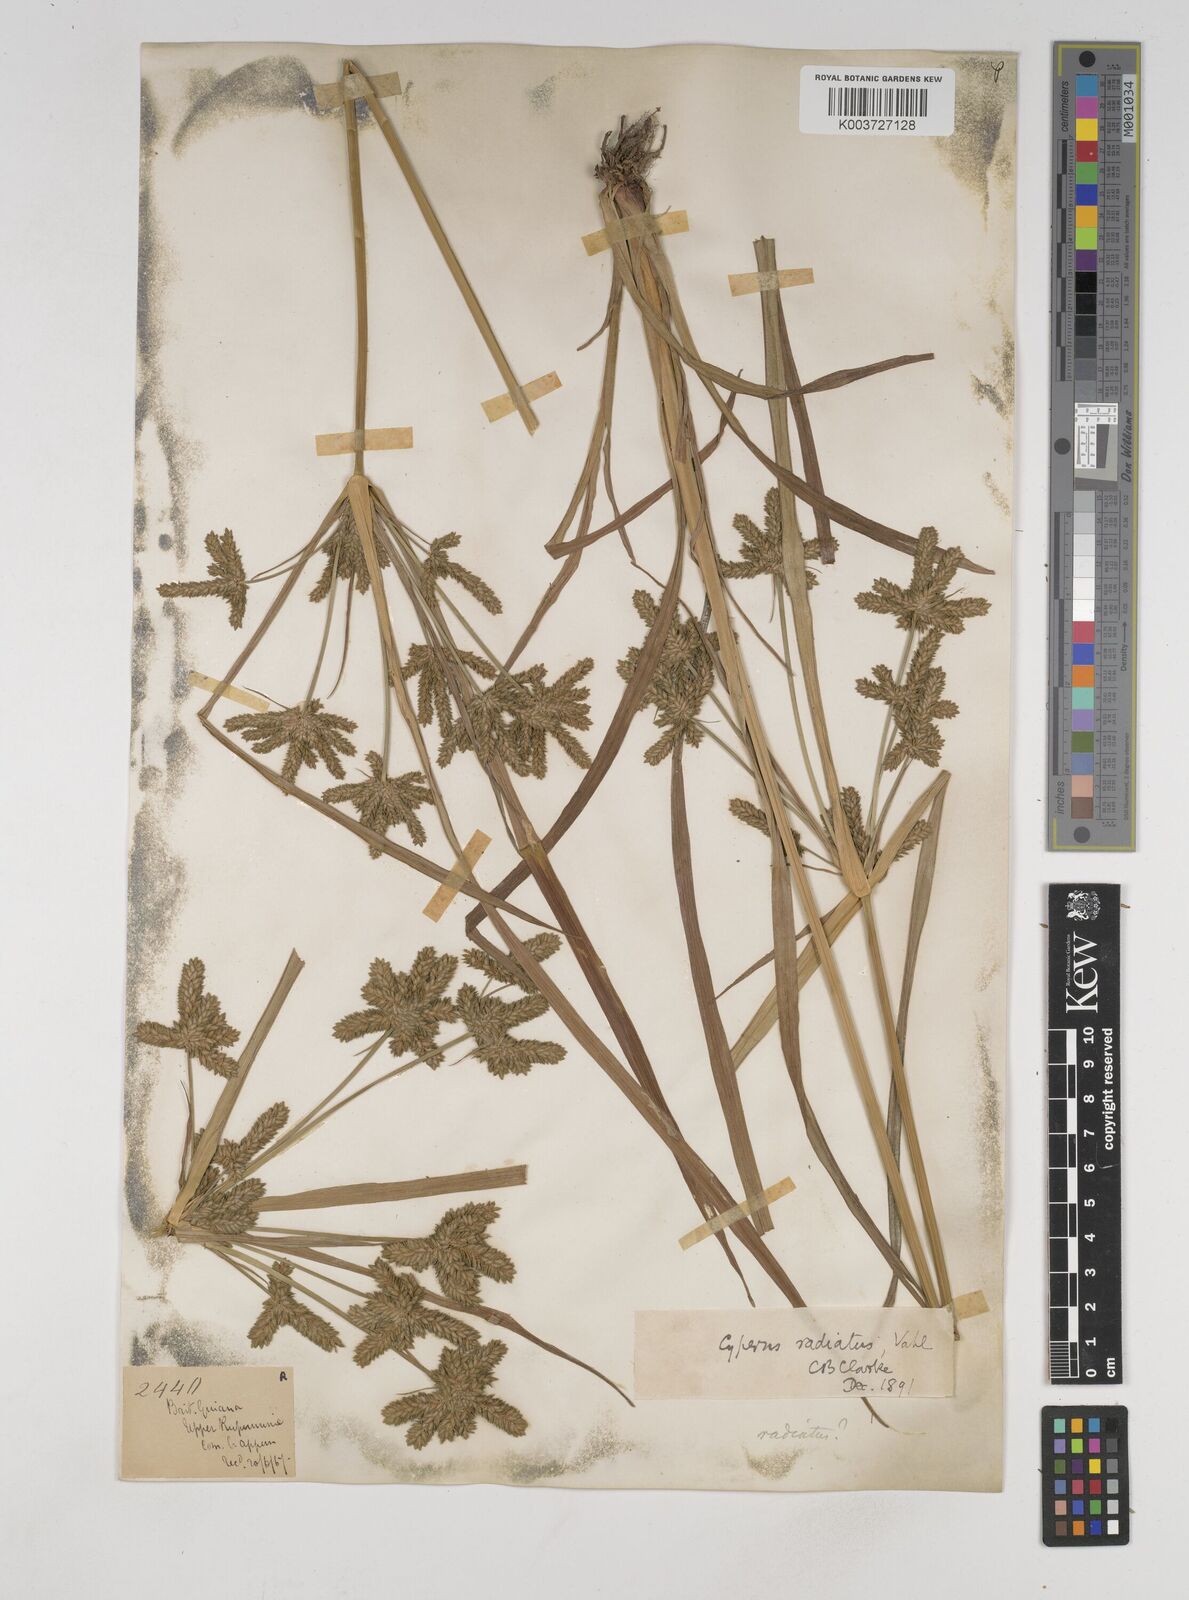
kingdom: Plantae
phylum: Tracheophyta
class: Liliopsida
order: Poales
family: Cyperaceae
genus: Cyperus
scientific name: Cyperus imbricatus
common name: Shingle flatsedge
